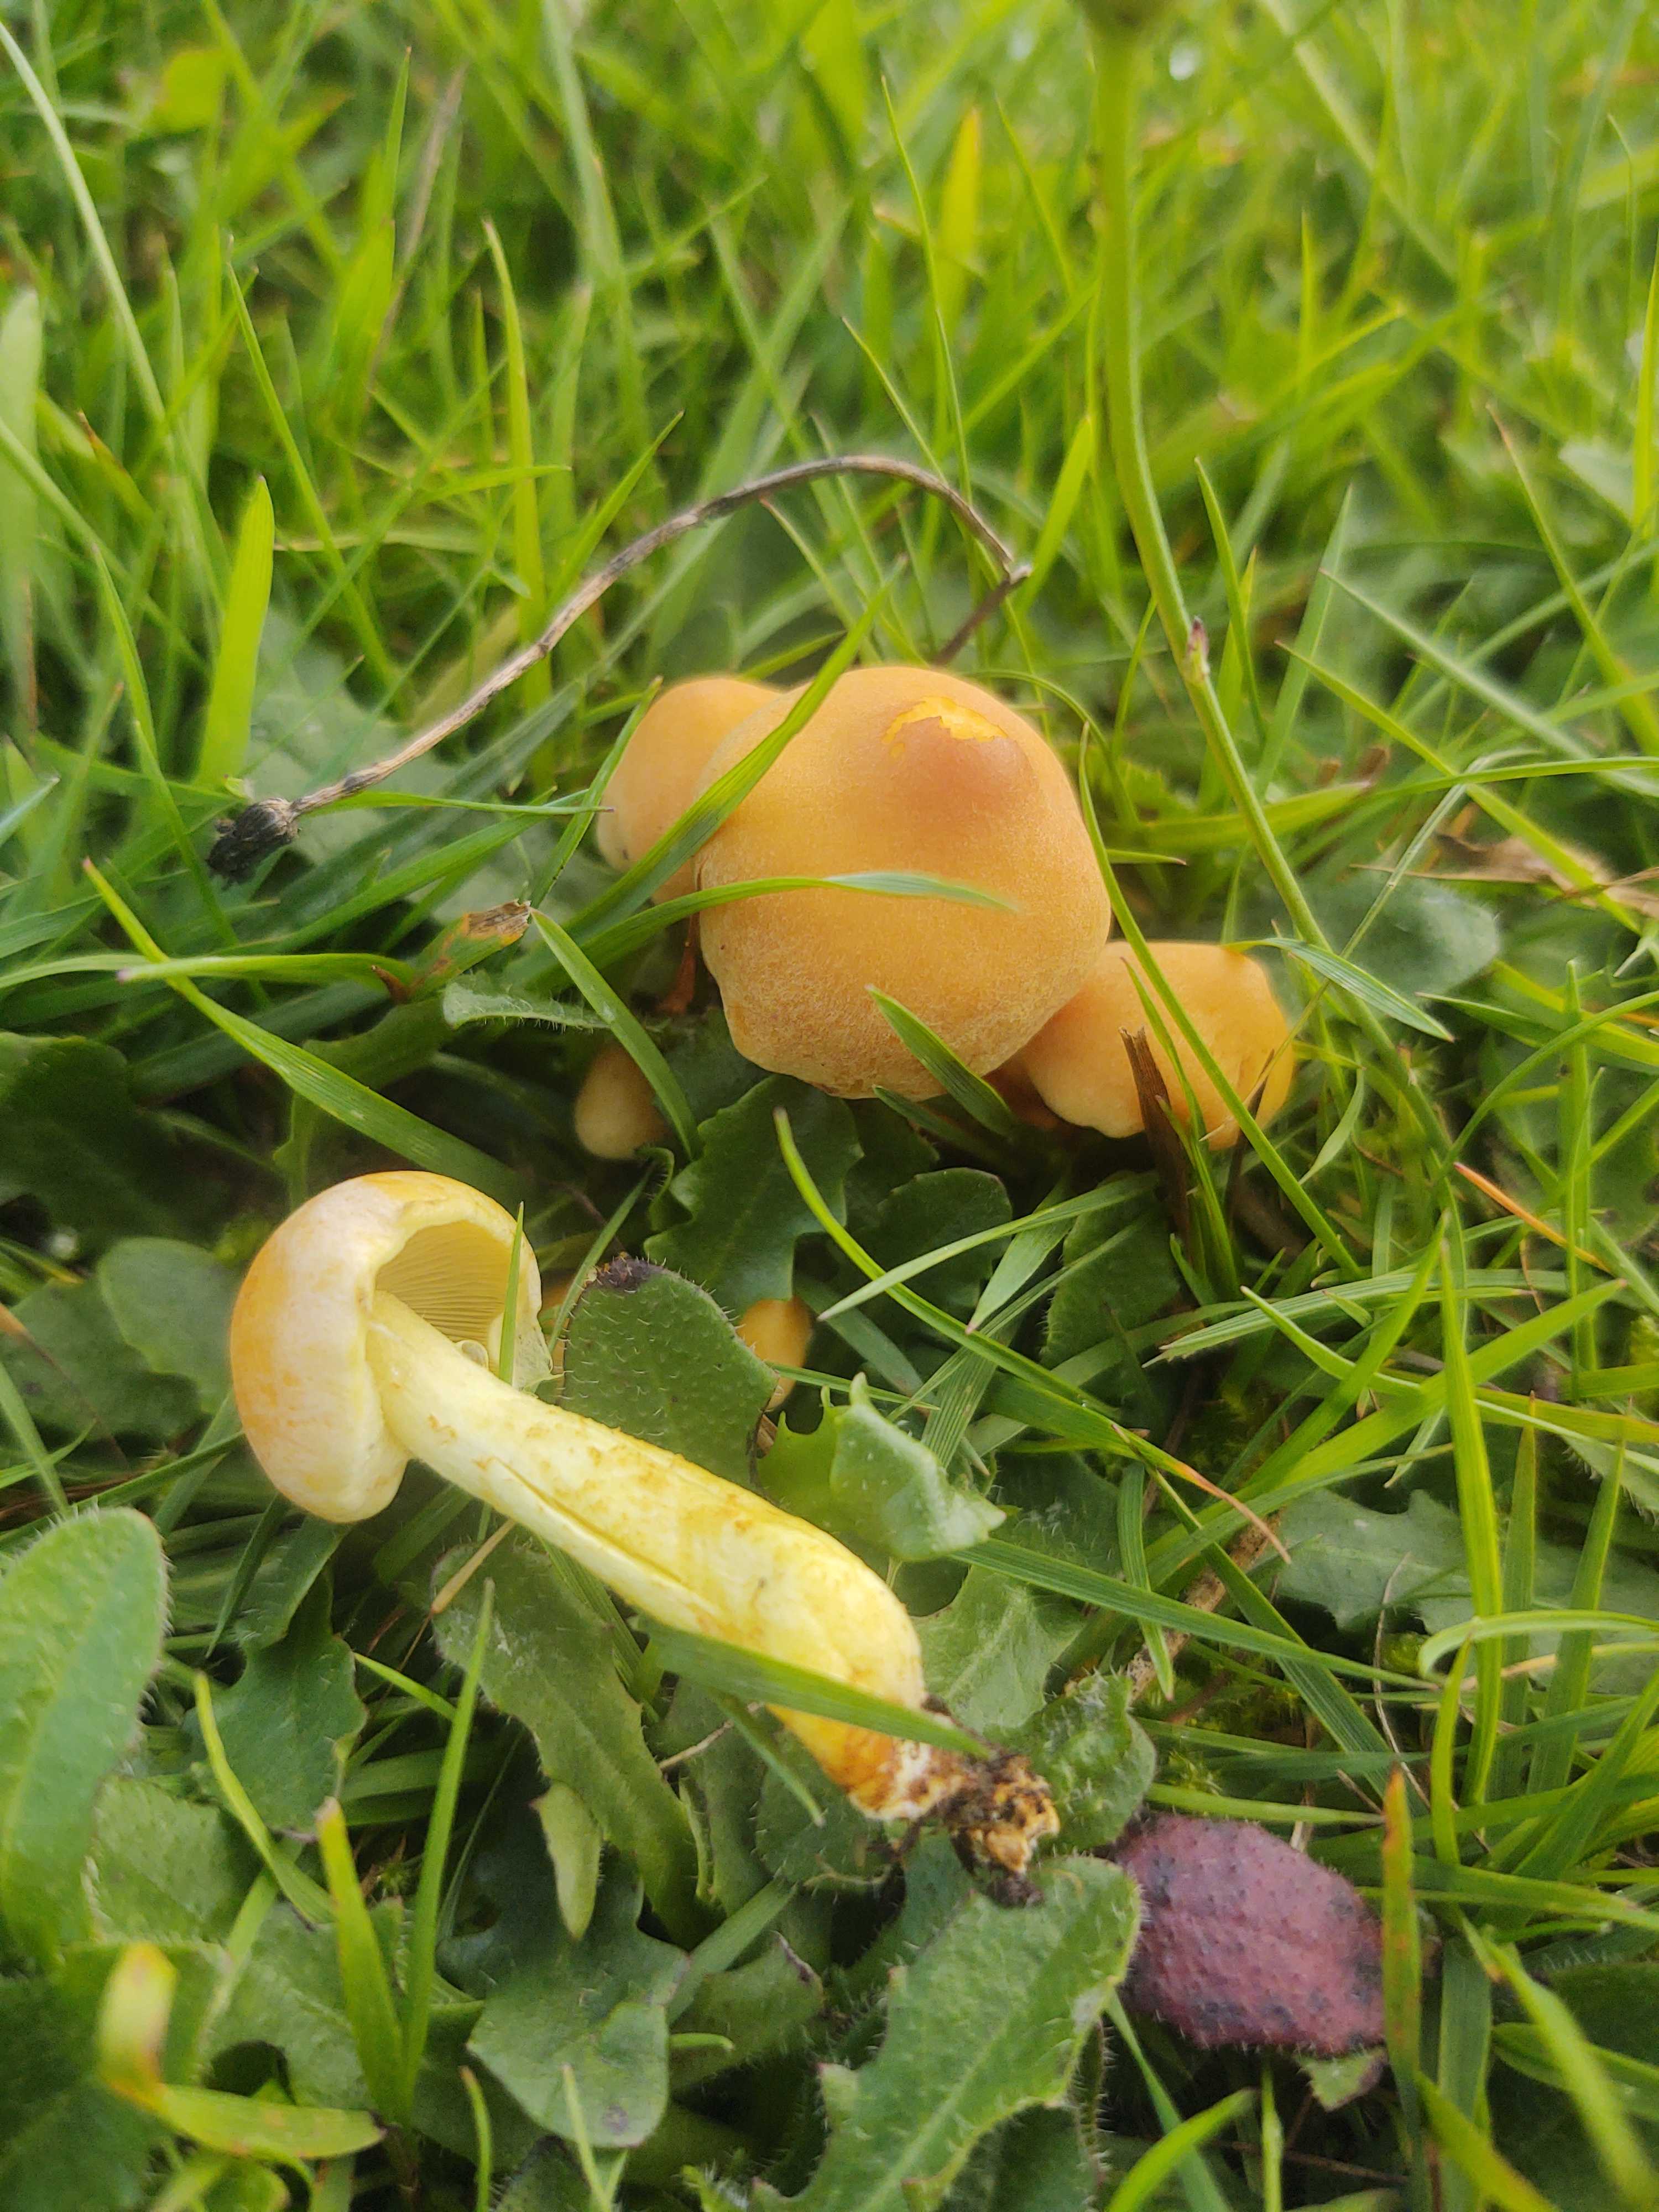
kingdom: Fungi
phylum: Basidiomycota
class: Agaricomycetes
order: Agaricales
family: Strophariaceae
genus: Hypholoma
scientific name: Hypholoma fasciculare
